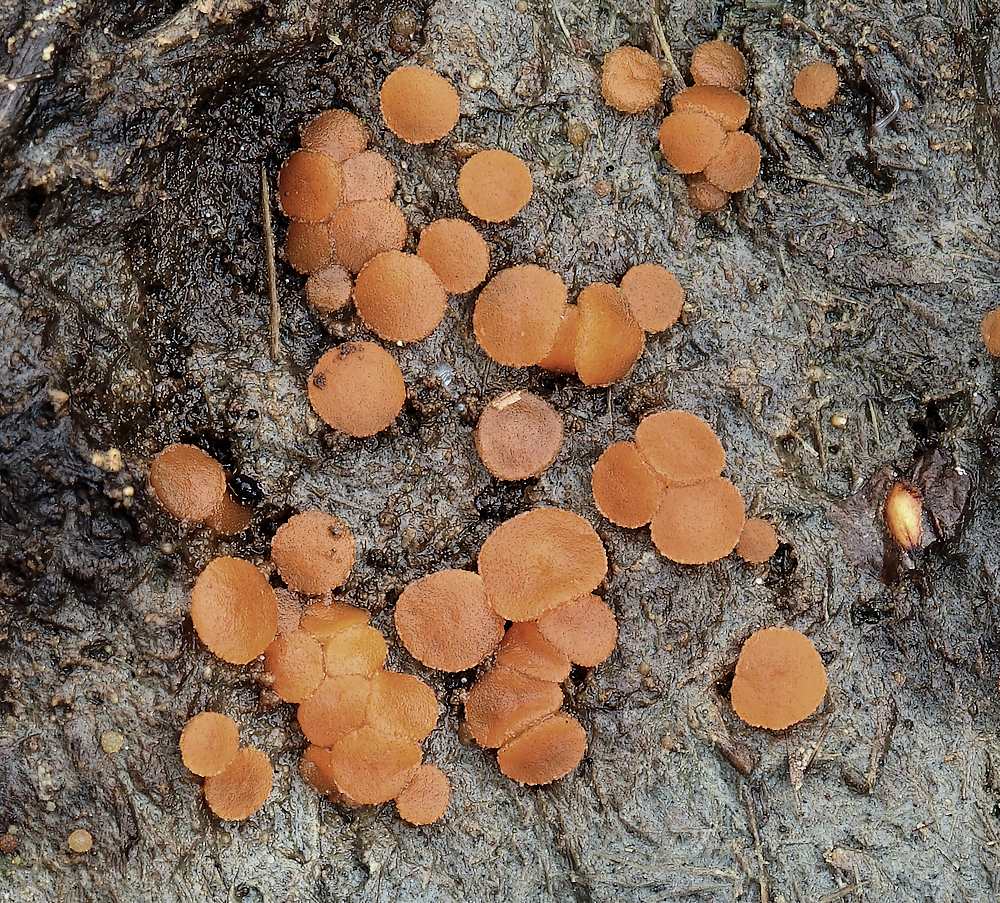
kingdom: Fungi
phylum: Ascomycota
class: Pezizomycetes
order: Pezizales
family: Pyronemataceae
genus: Cheilymenia
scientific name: Cheilymenia granulata
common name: møgbæger
